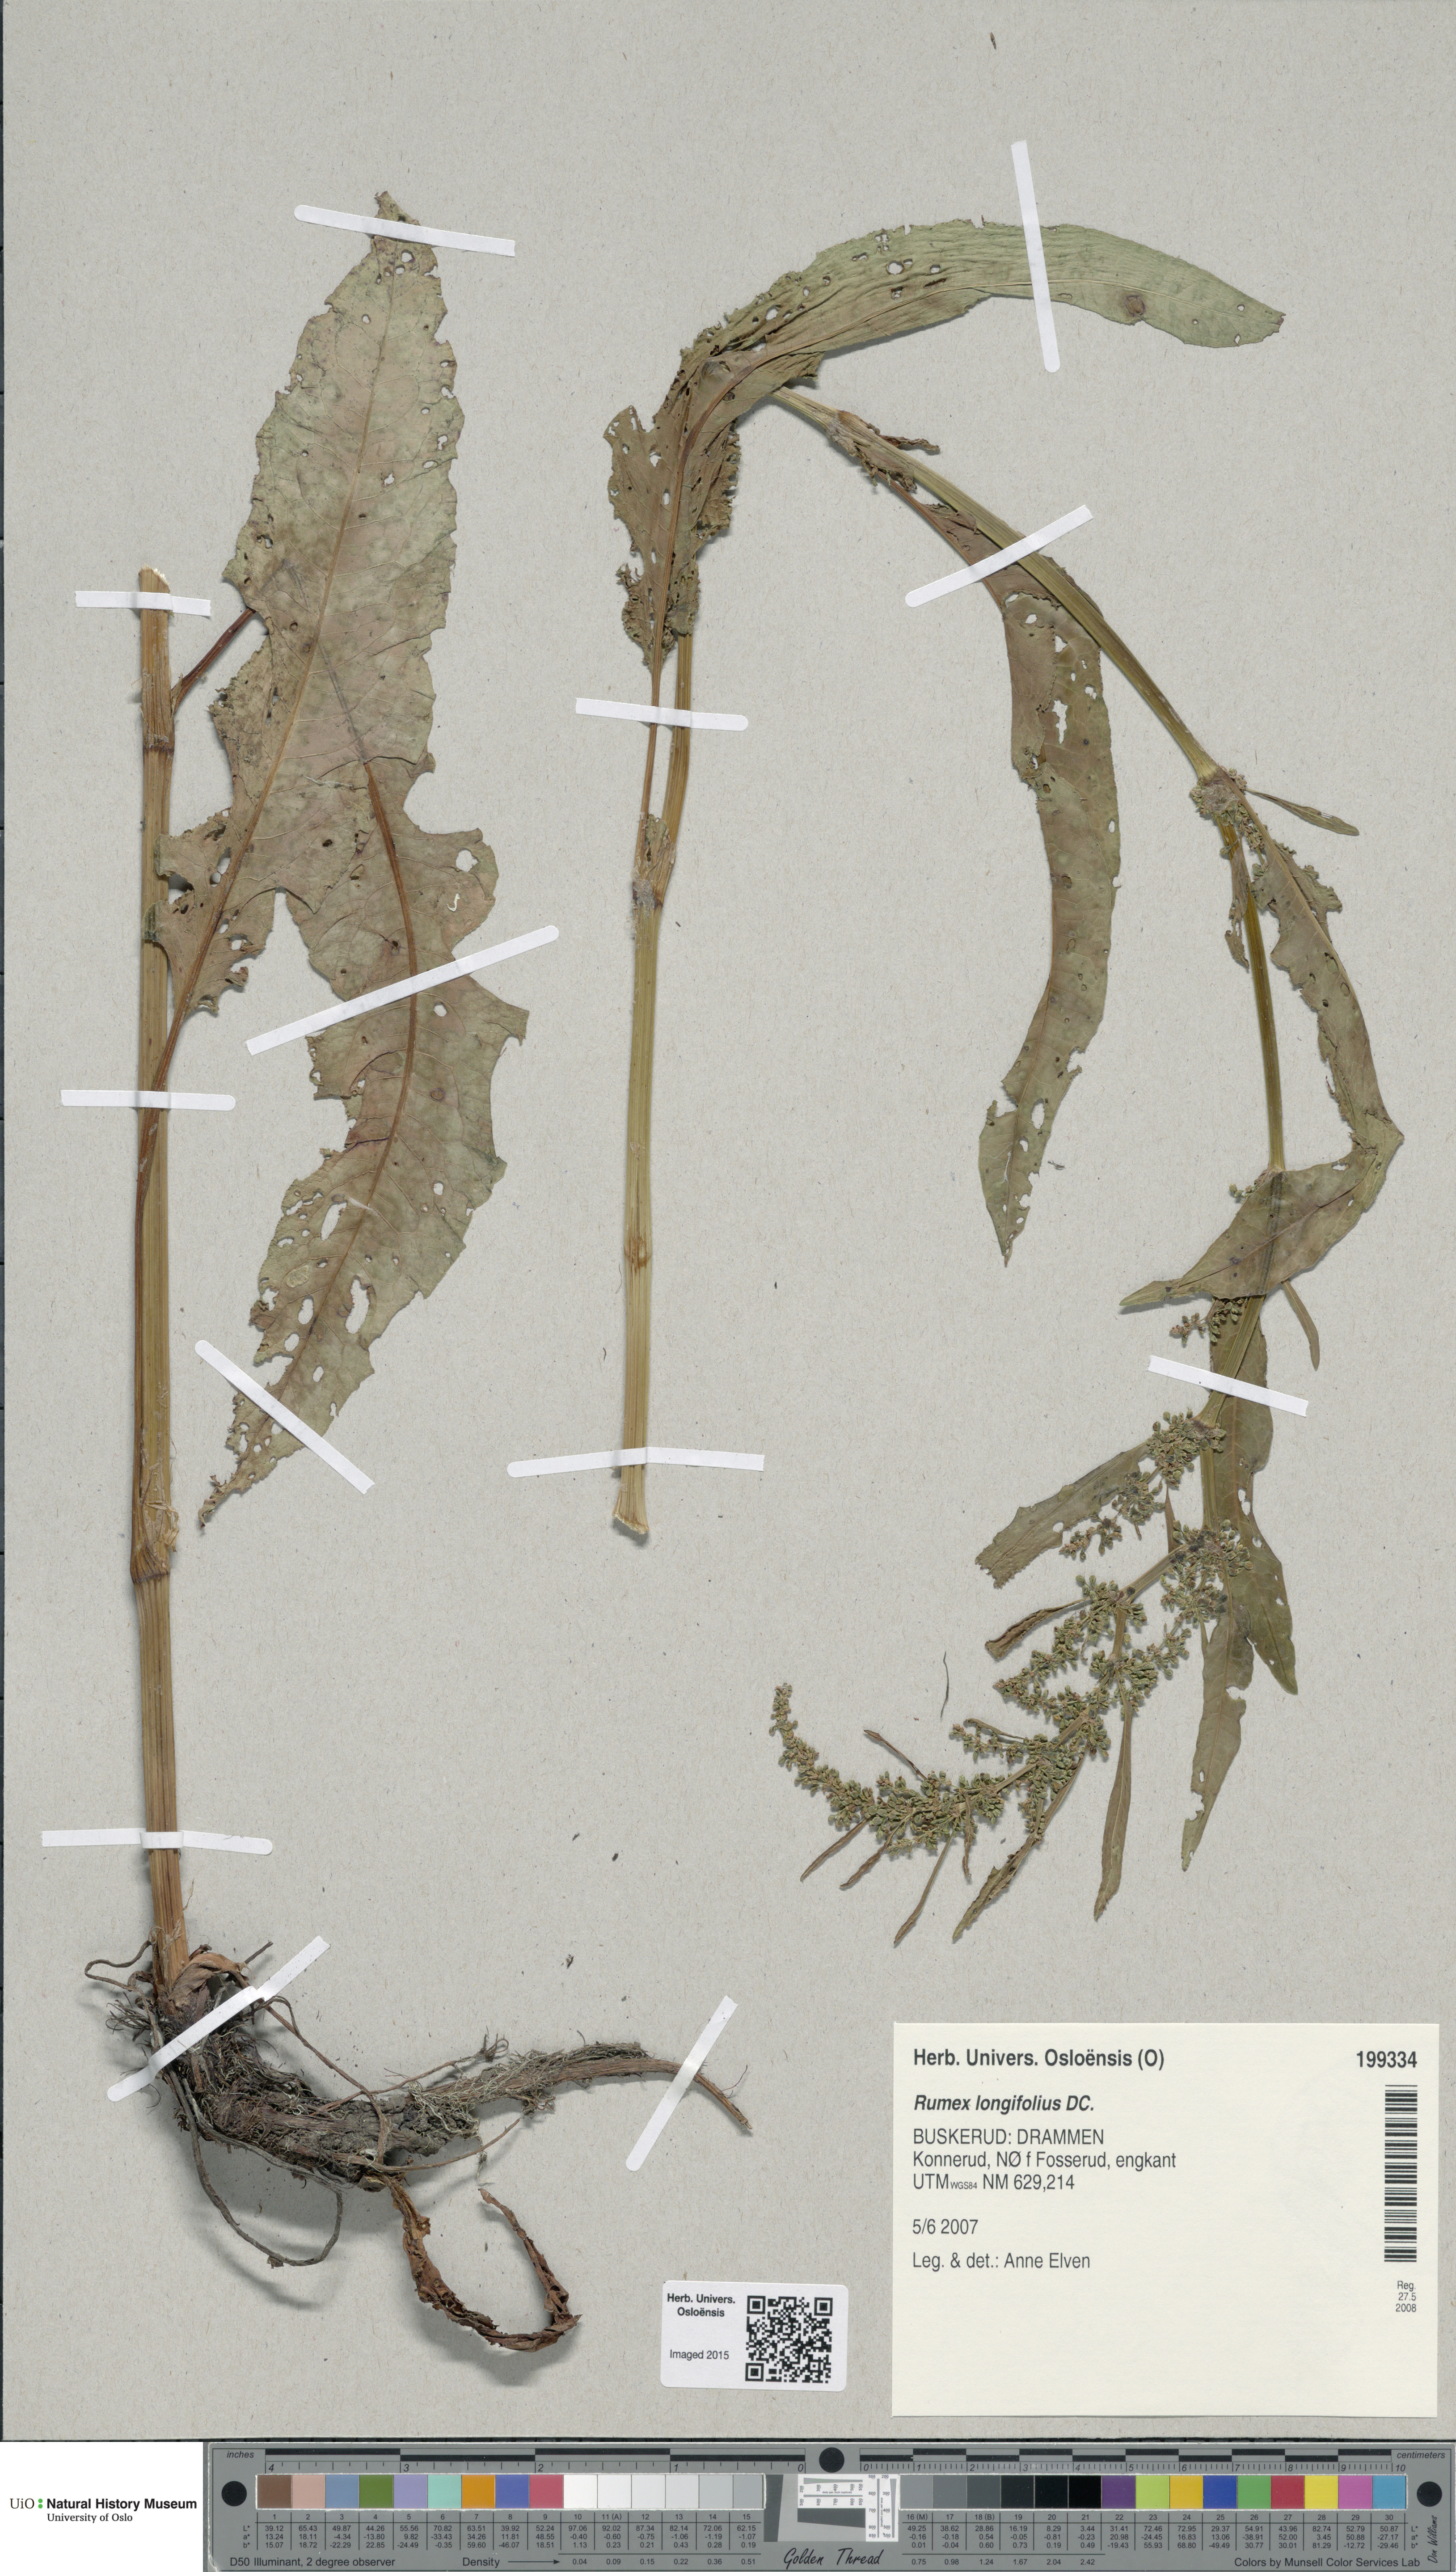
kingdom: Plantae
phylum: Tracheophyta
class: Magnoliopsida
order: Caryophyllales
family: Polygonaceae
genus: Rumex
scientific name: Rumex longifolius
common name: Dooryard dock
